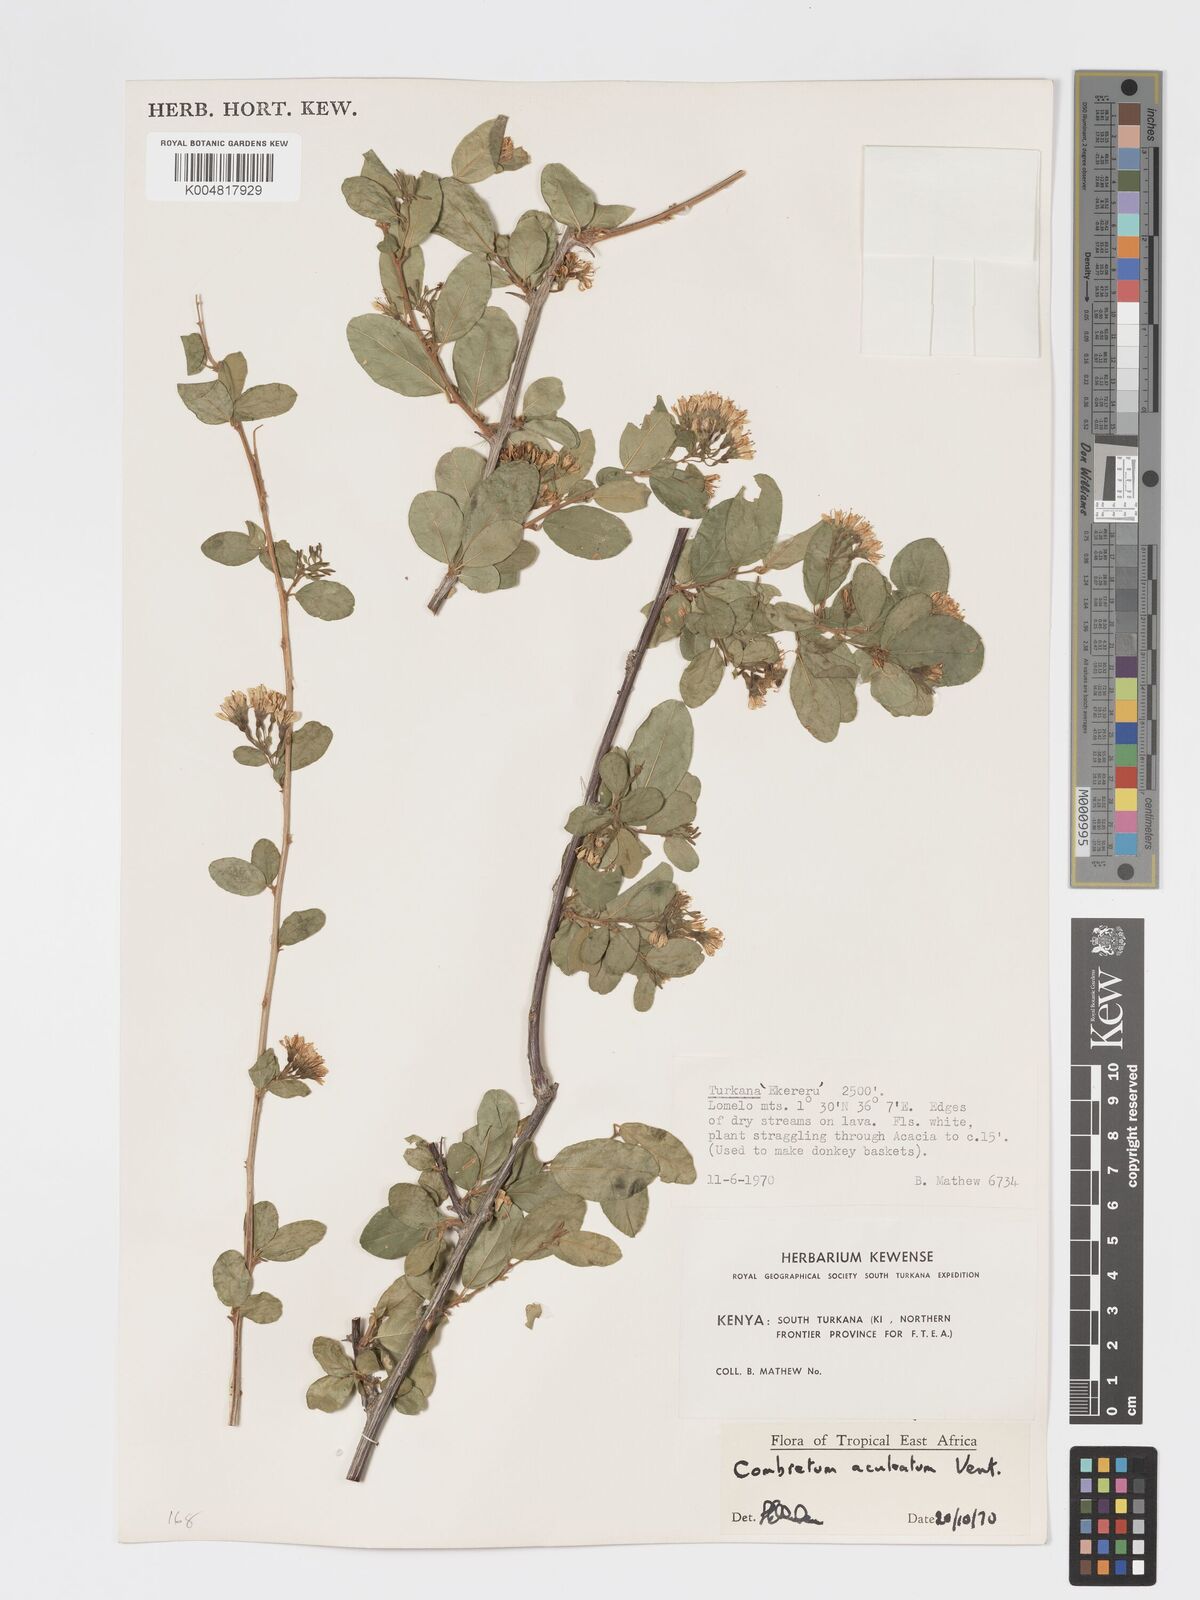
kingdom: Plantae
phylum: Tracheophyta
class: Magnoliopsida
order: Myrtales
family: Combretaceae
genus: Combretum
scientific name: Combretum aculeatum
